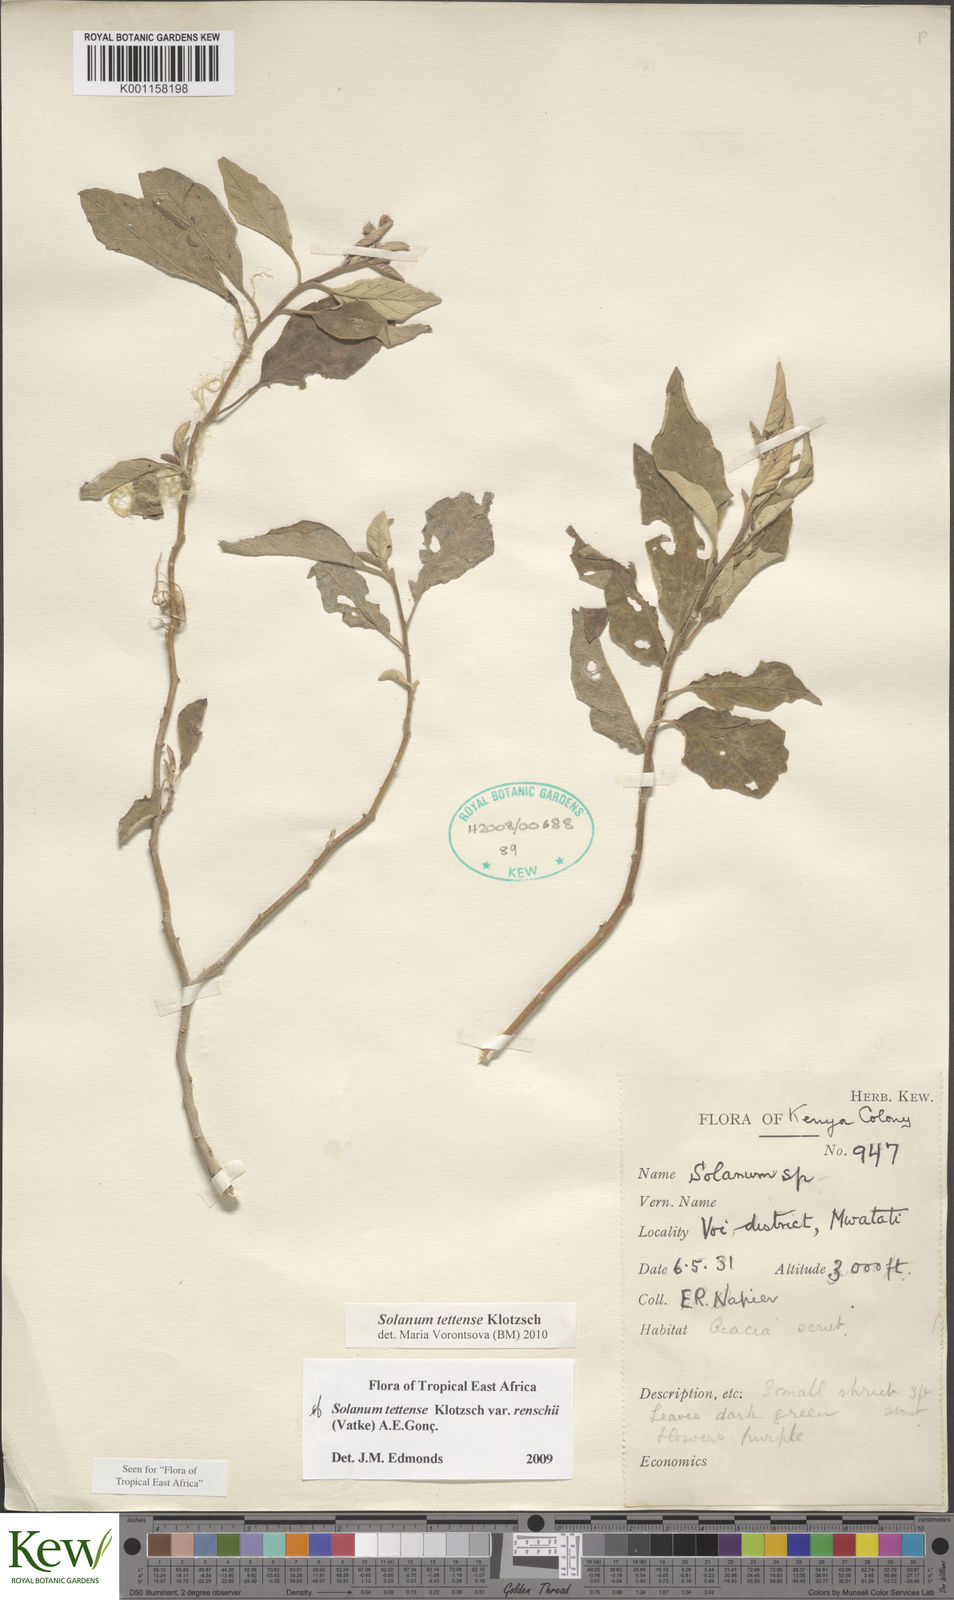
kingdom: Plantae
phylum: Tracheophyta
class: Magnoliopsida
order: Solanales
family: Solanaceae
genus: Solanum
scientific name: Solanum tettense
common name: Mozambique bitter apple
